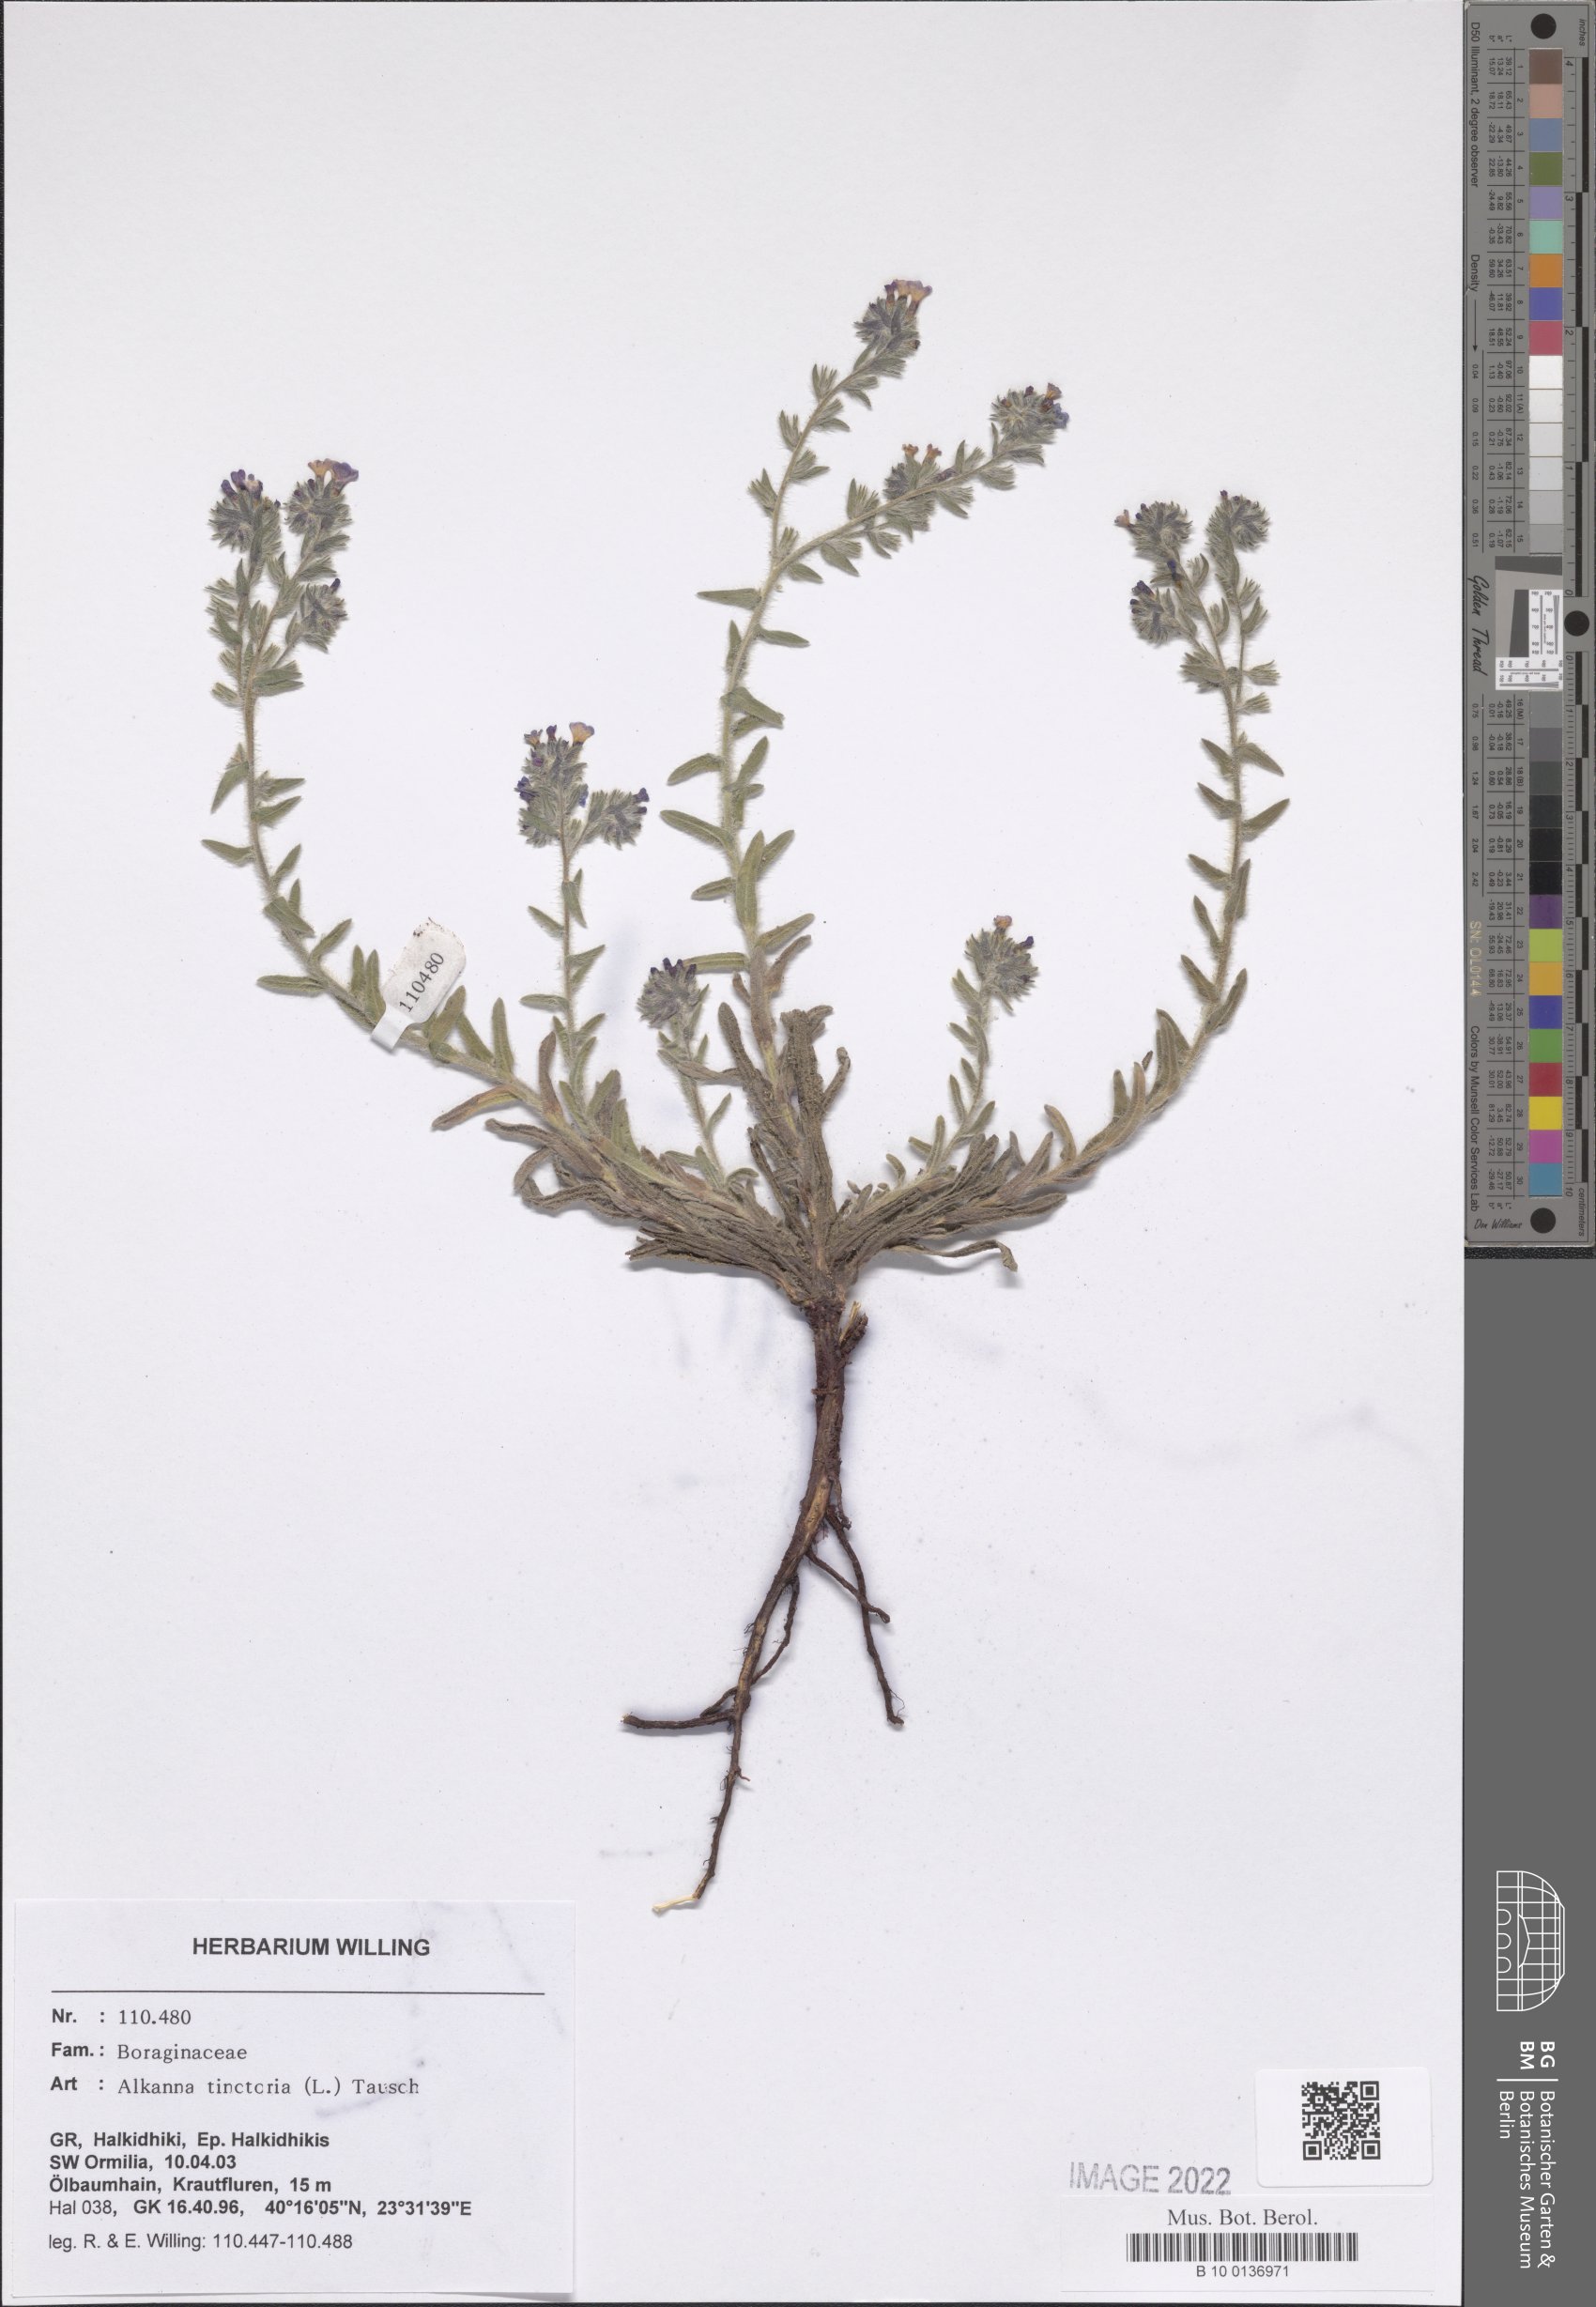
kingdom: Plantae
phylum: Tracheophyta
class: Magnoliopsida
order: Boraginales
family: Boraginaceae
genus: Alkanna
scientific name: Alkanna tinctoria
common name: Dyer's-alkanet
